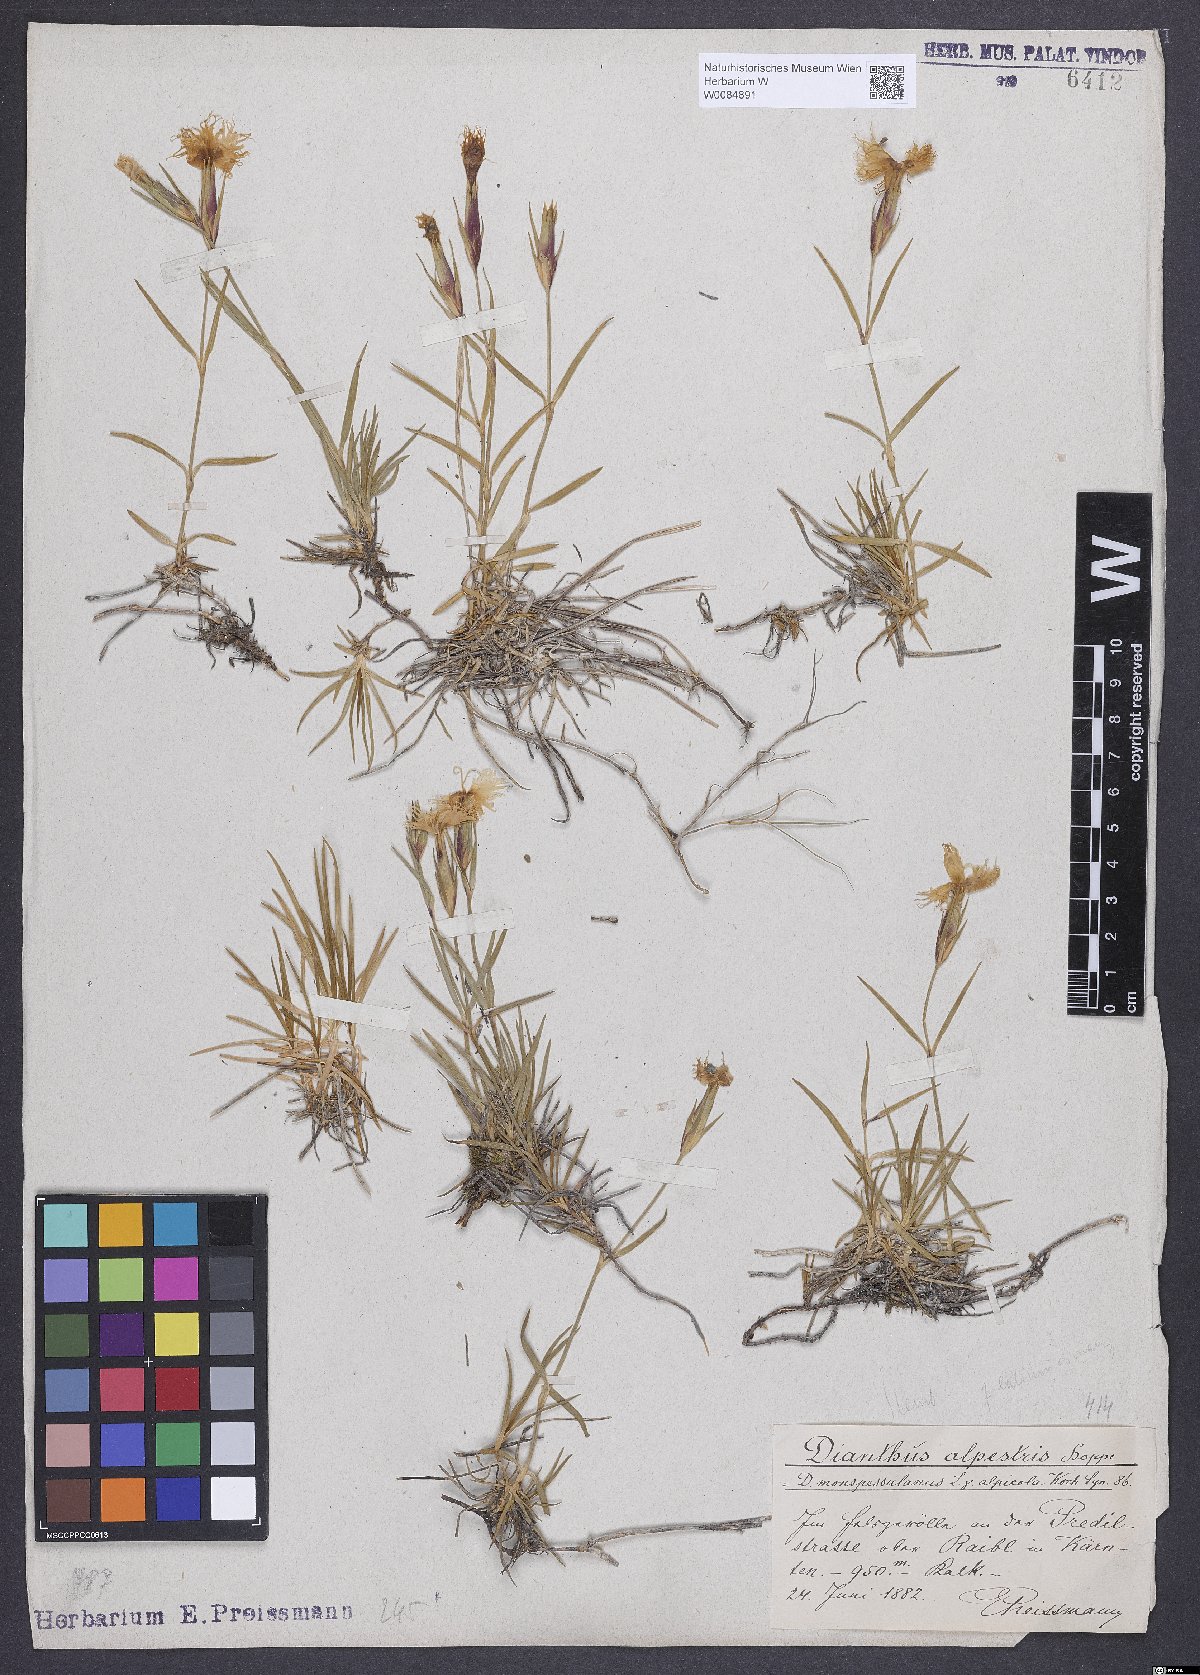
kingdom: Plantae
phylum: Tracheophyta
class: Magnoliopsida
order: Caryophyllales
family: Caryophyllaceae
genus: Dianthus
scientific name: Dianthus hyssopifolius
